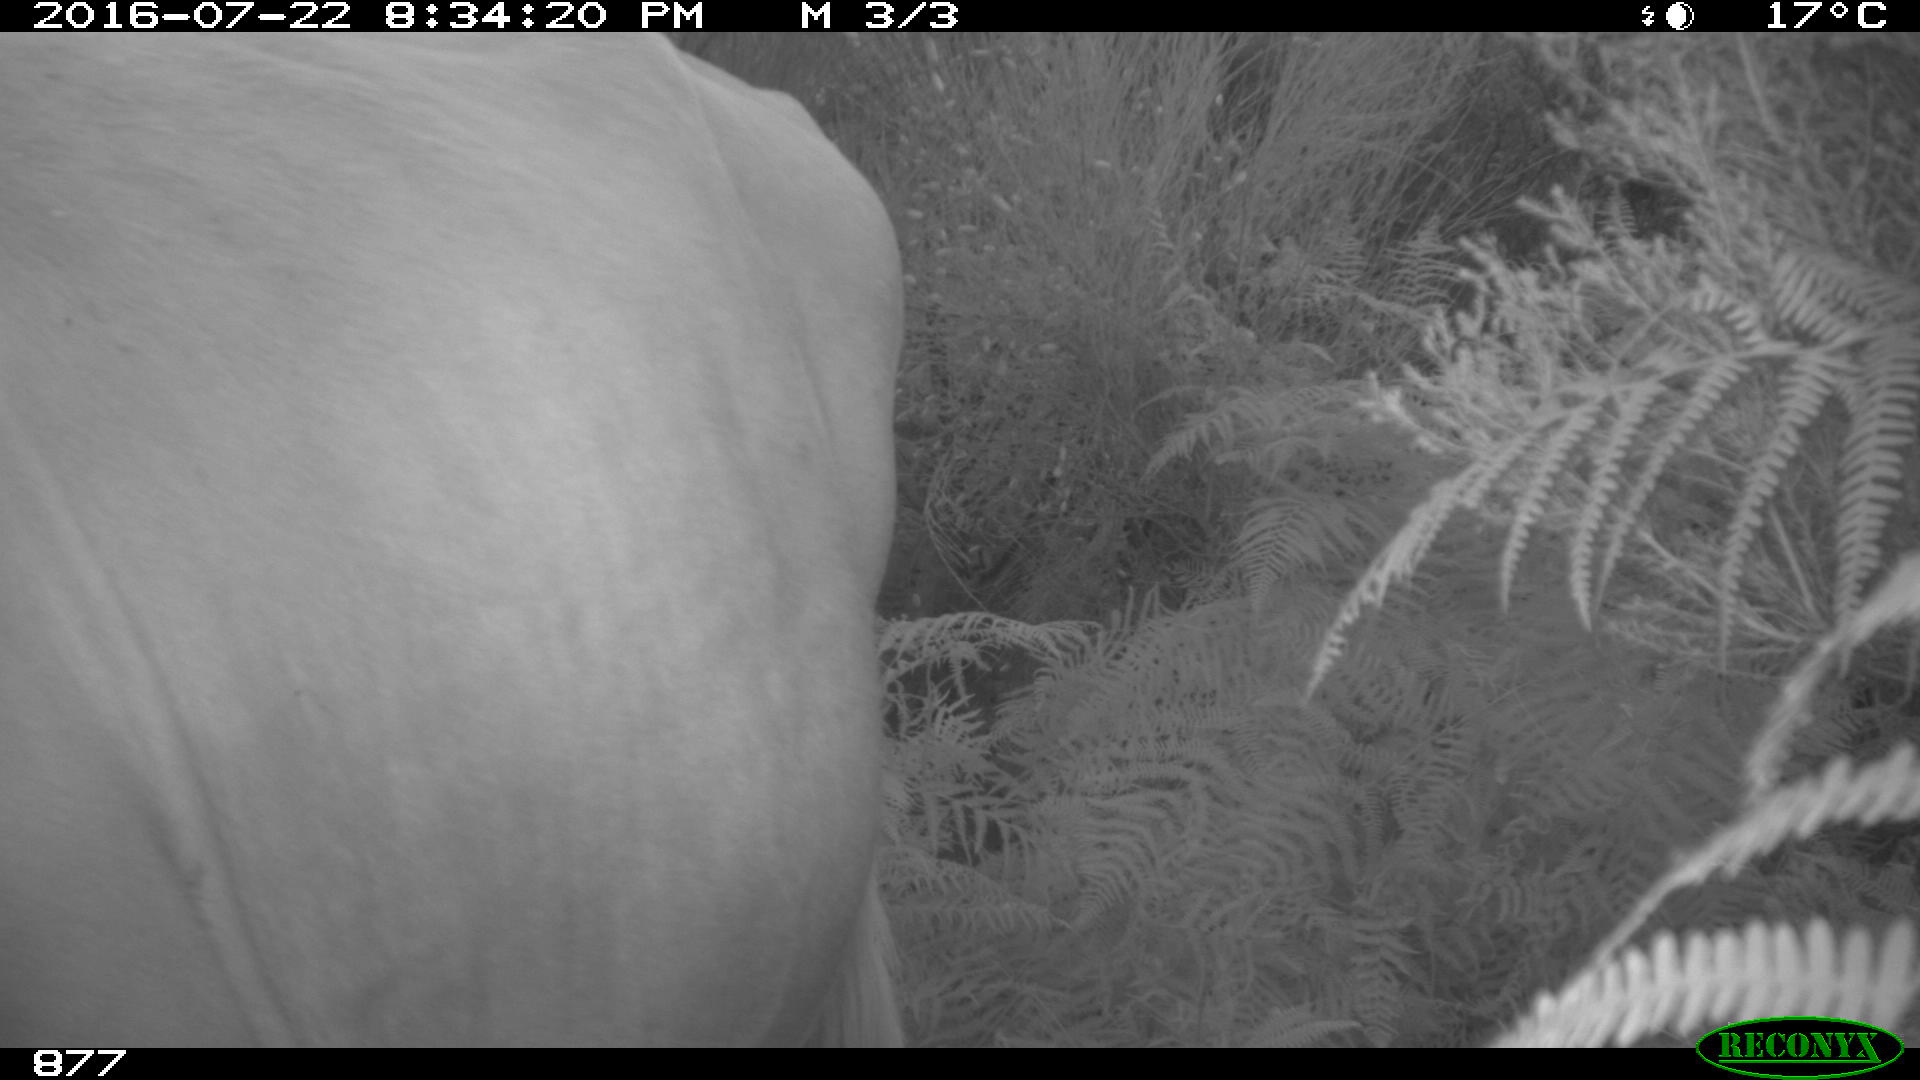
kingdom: Animalia
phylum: Chordata
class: Mammalia
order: Artiodactyla
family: Bovidae
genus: Bos
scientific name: Bos taurus
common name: Domesticated cattle
